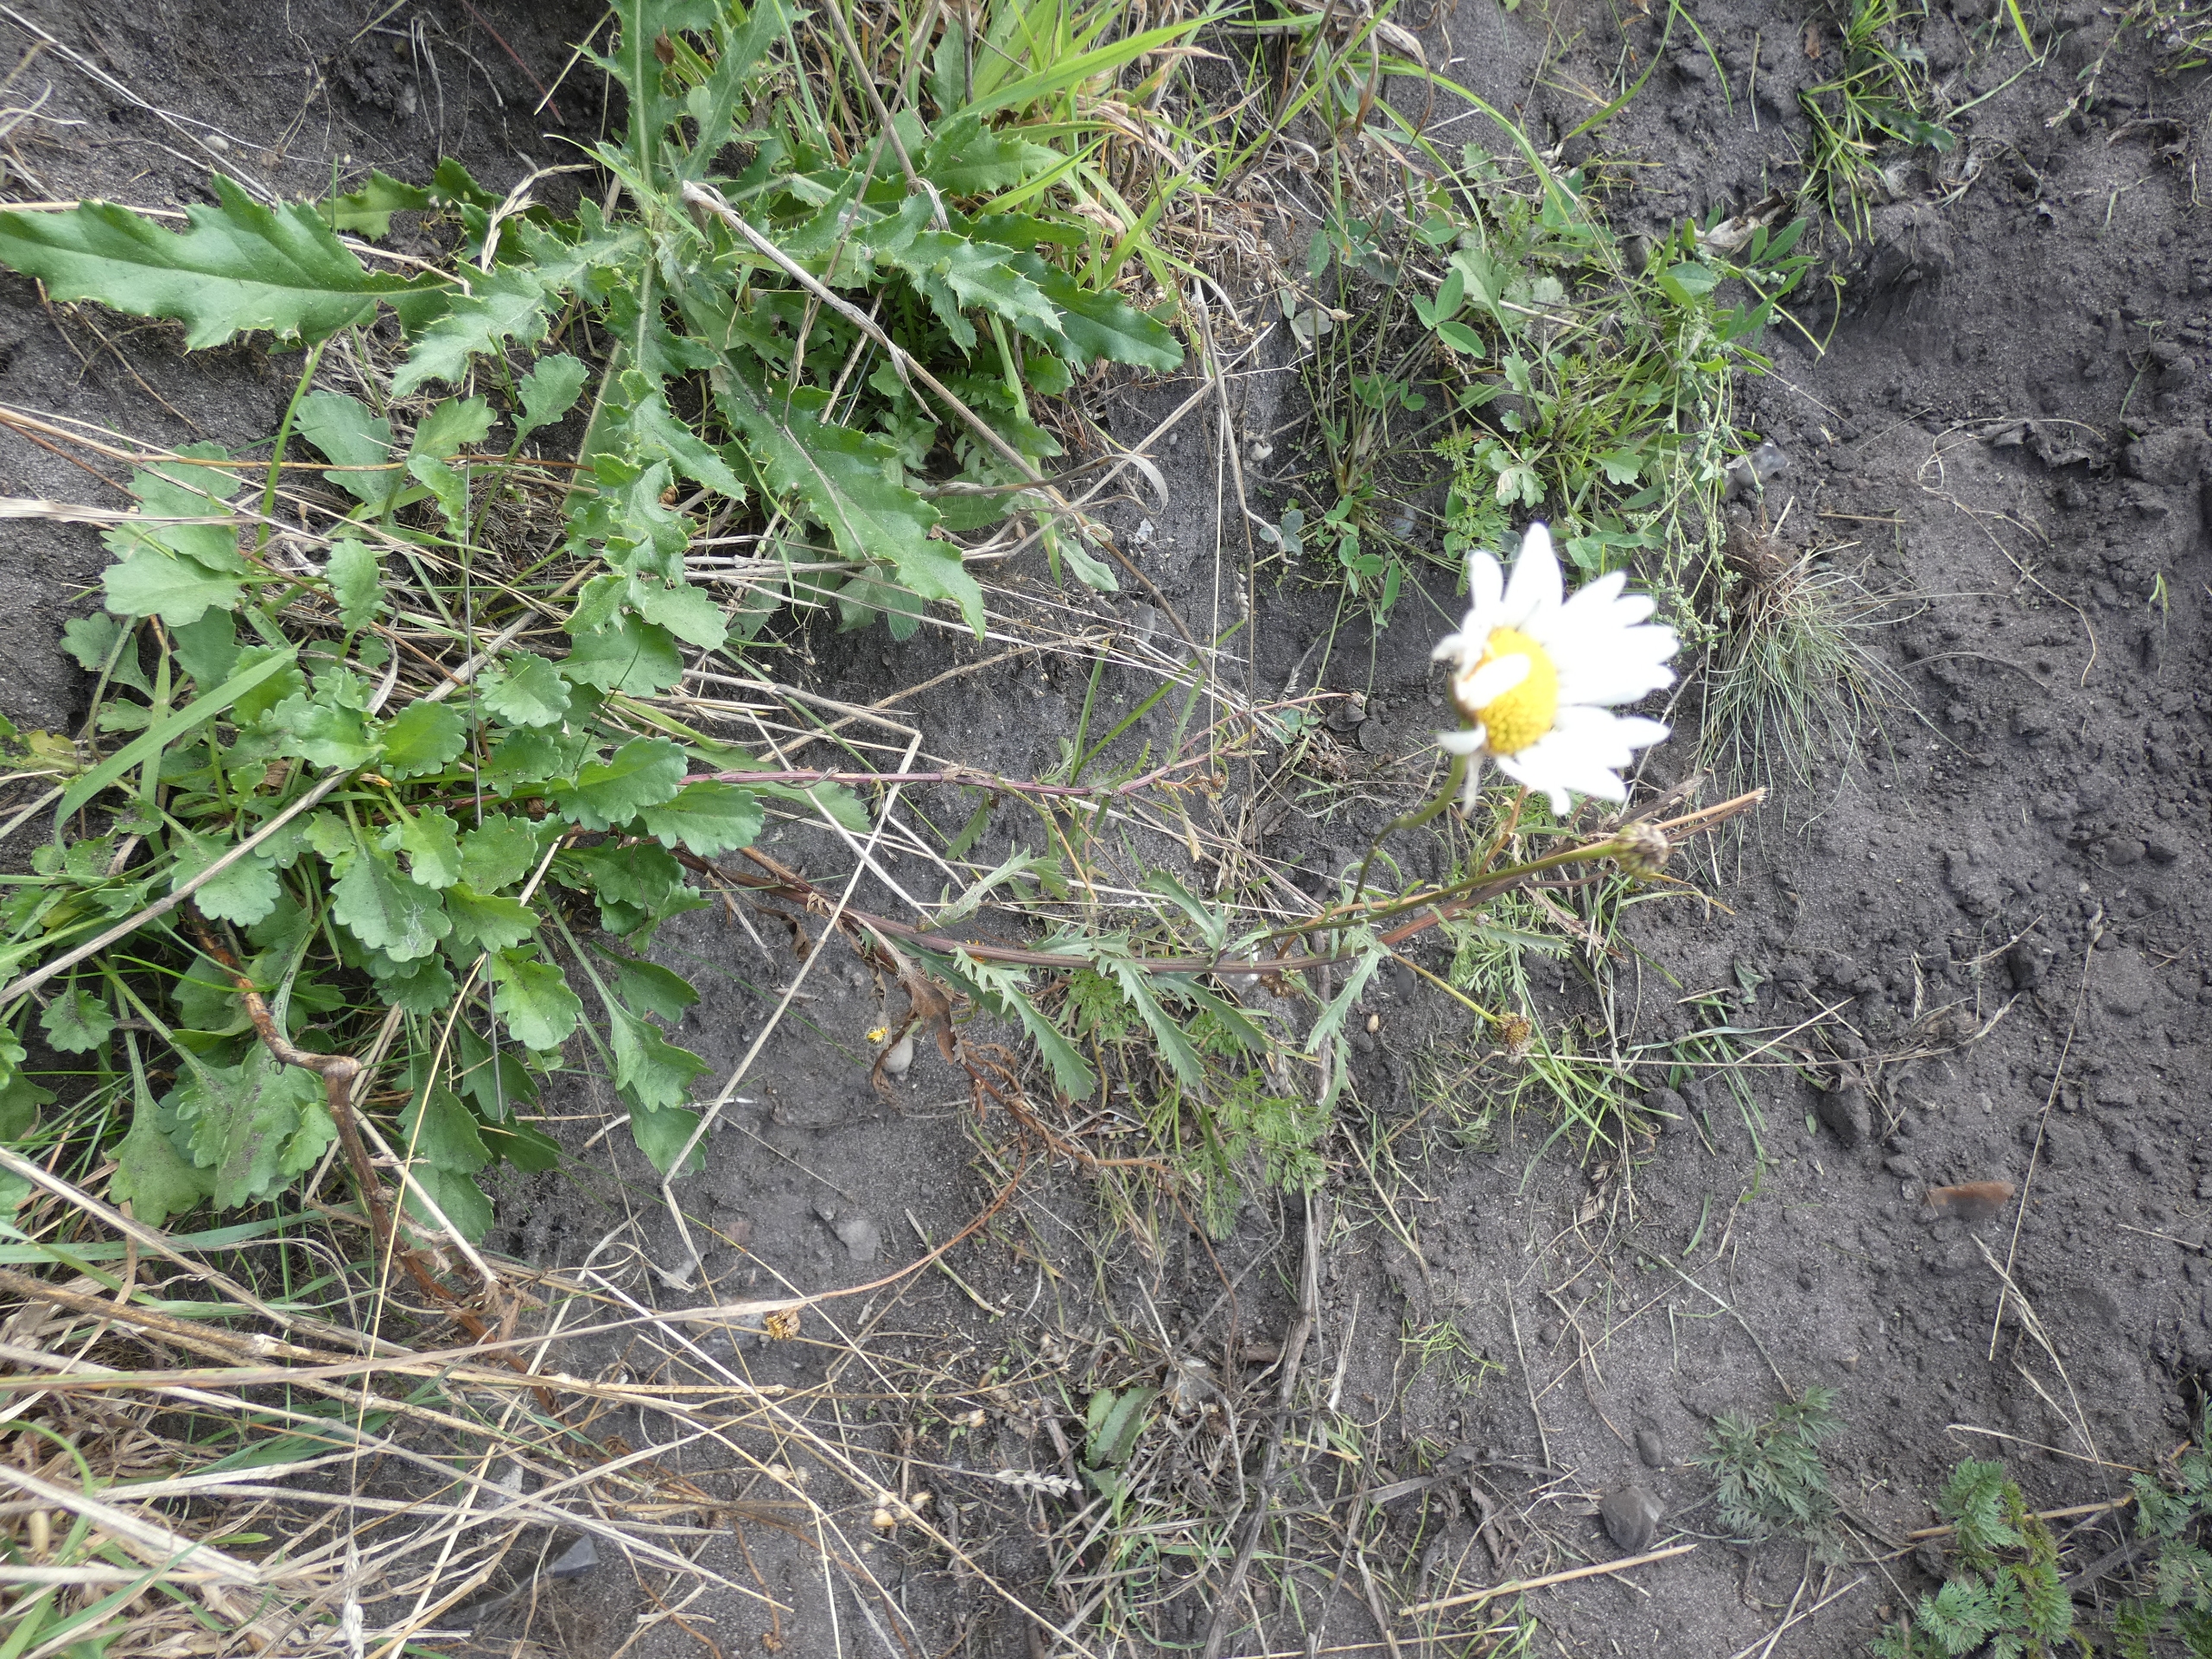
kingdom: Plantae
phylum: Tracheophyta
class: Magnoliopsida
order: Asterales
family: Asteraceae
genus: Leucanthemum
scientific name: Leucanthemum vulgare
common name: Hvid okseøje
